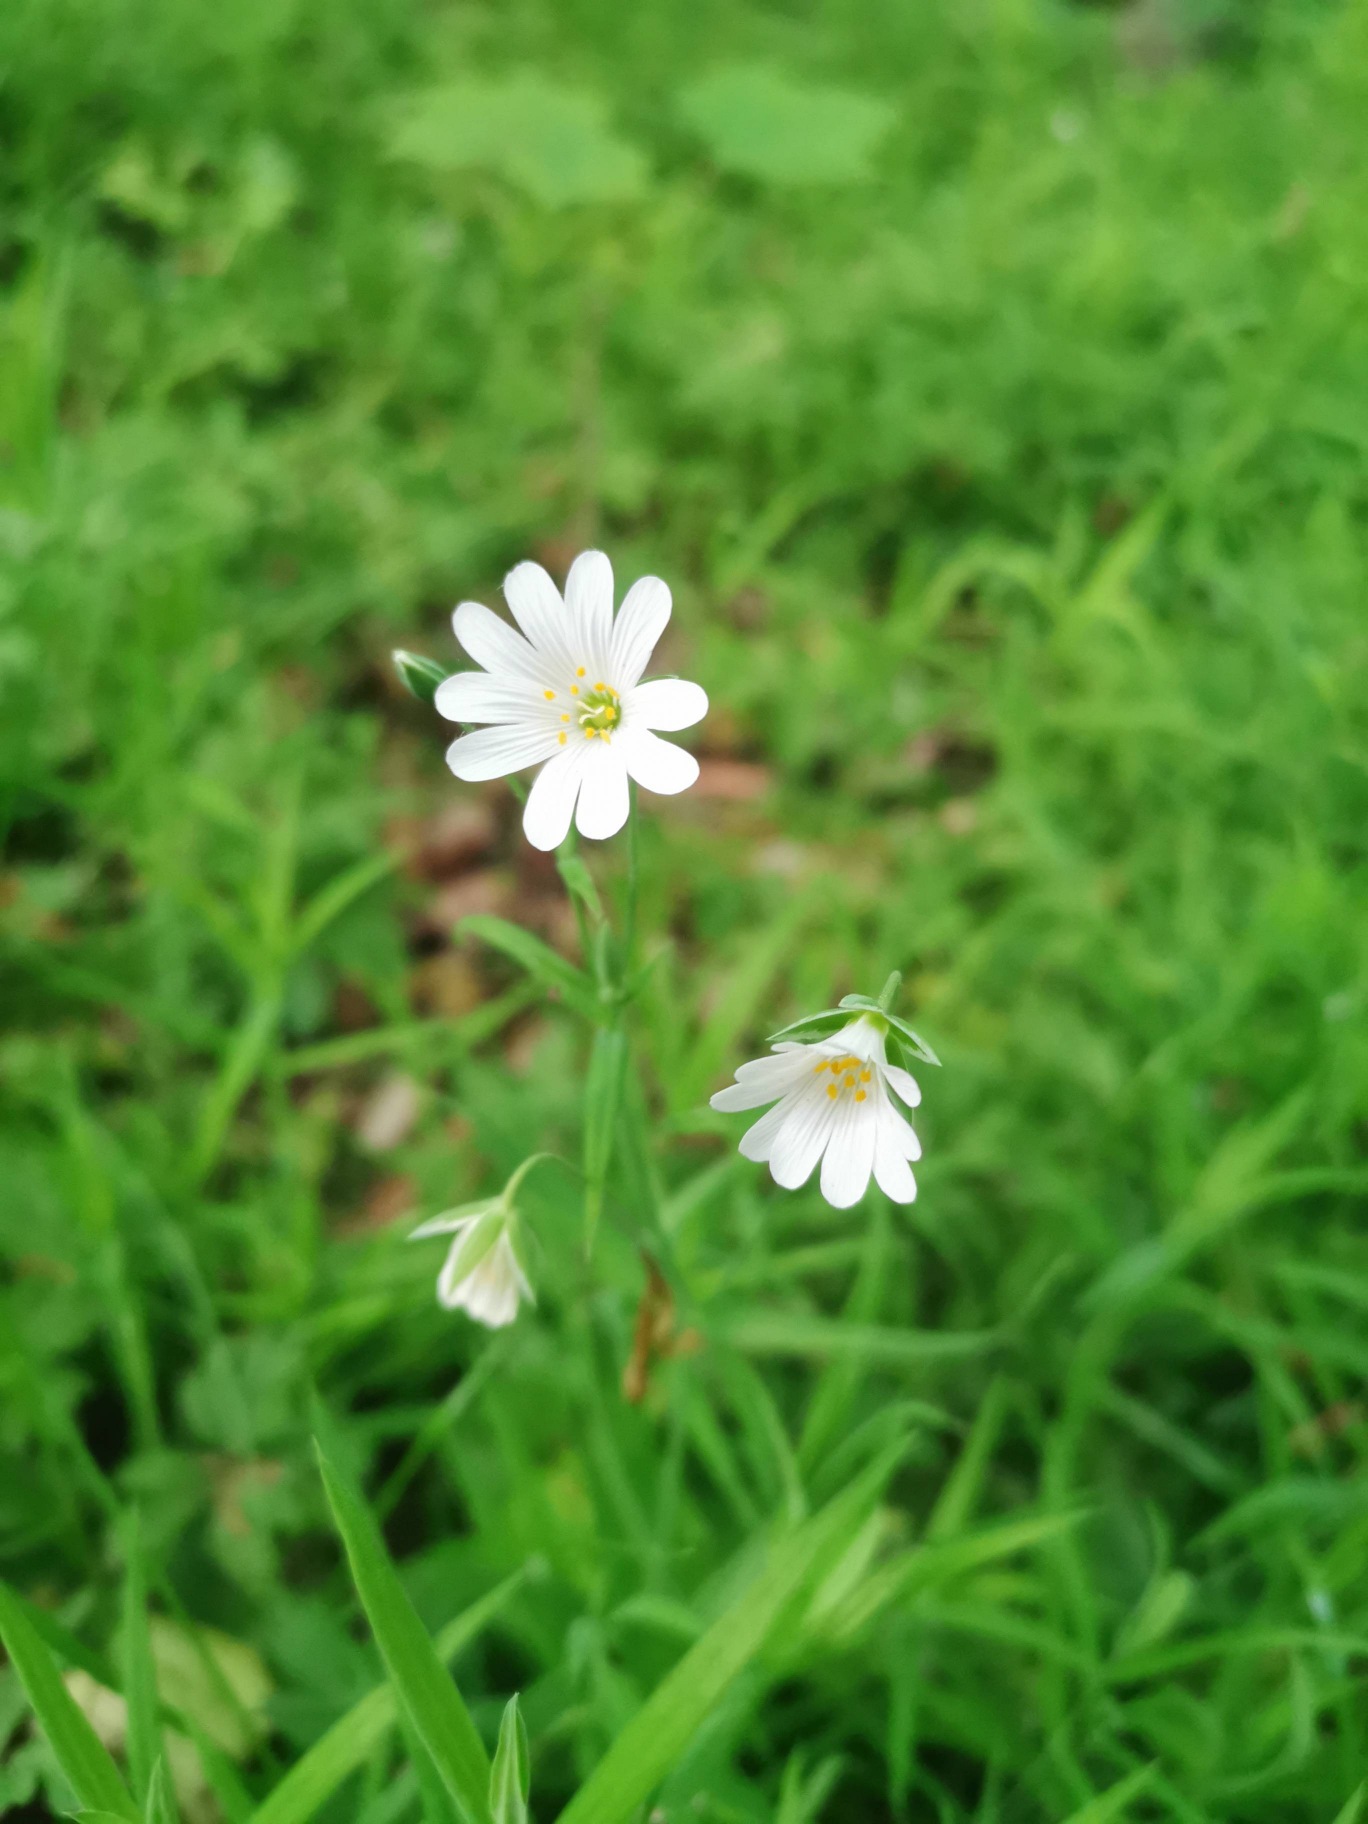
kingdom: Plantae
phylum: Tracheophyta
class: Magnoliopsida
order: Caryophyllales
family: Caryophyllaceae
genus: Rabelera
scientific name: Rabelera holostea
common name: Stor fladstjerne
